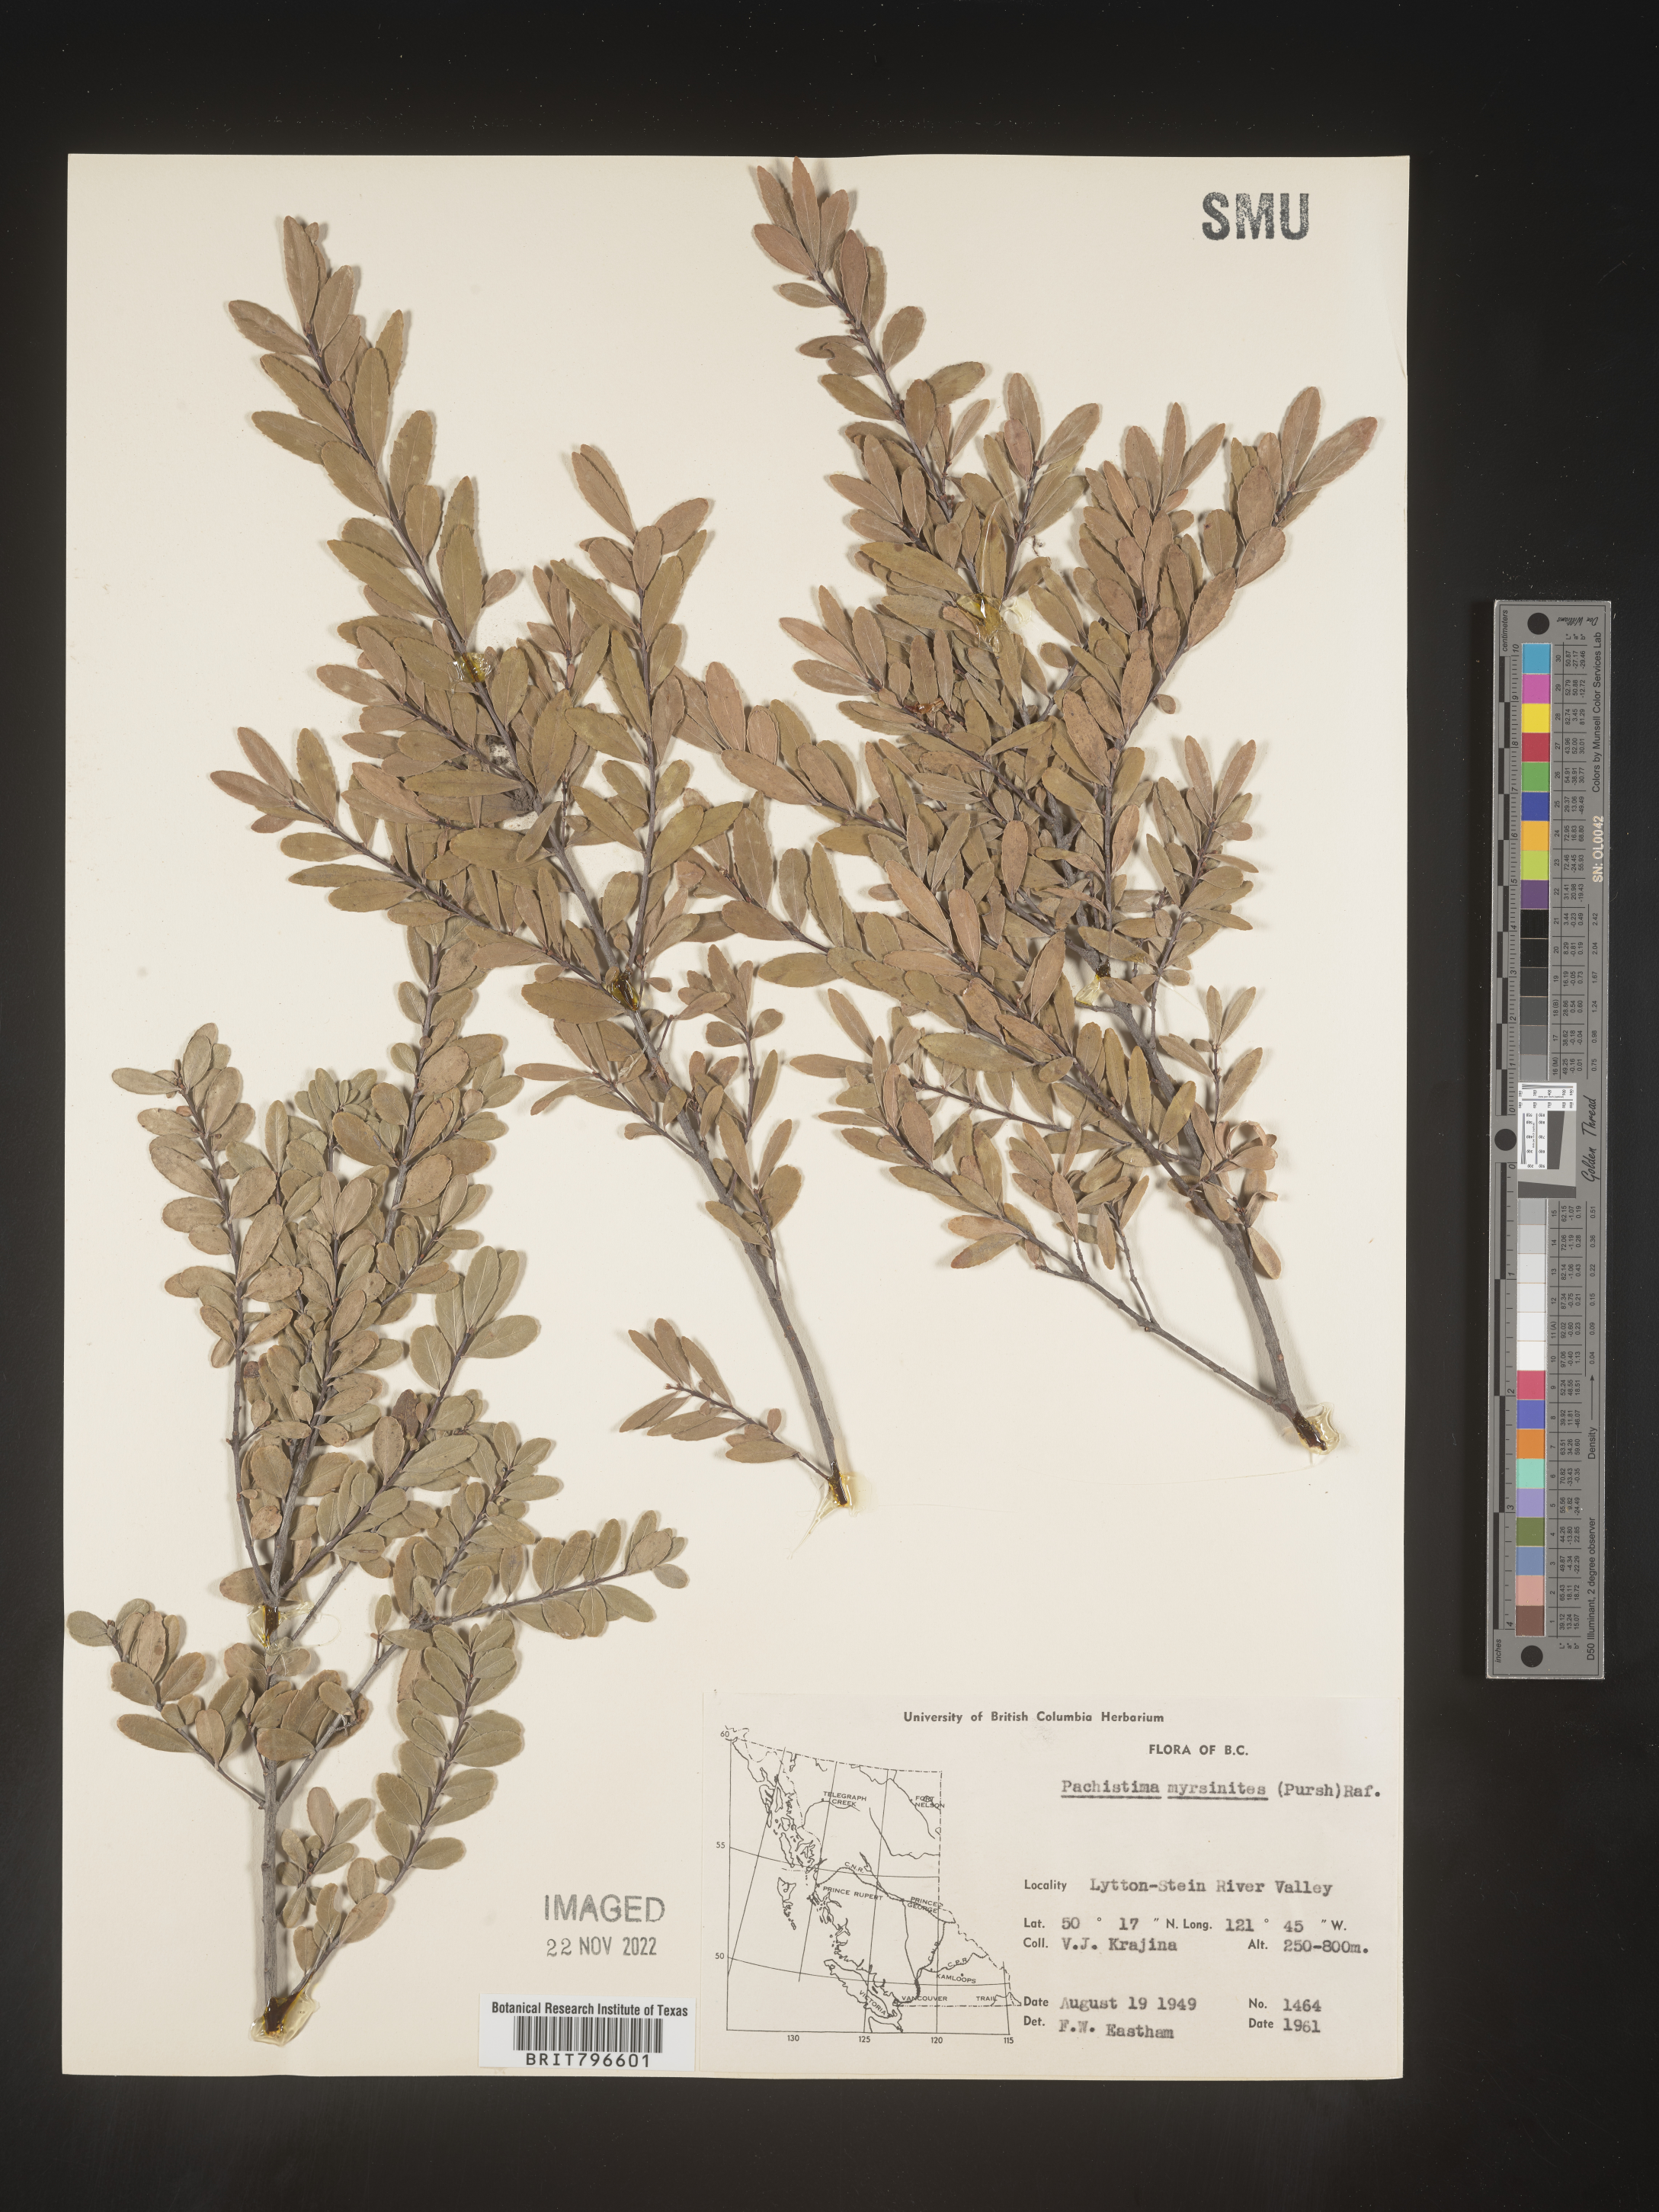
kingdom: Plantae
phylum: Tracheophyta
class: Magnoliopsida
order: Celastrales
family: Celastraceae
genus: Paxistima
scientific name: Paxistima myrsinites
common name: Mountain-lover
